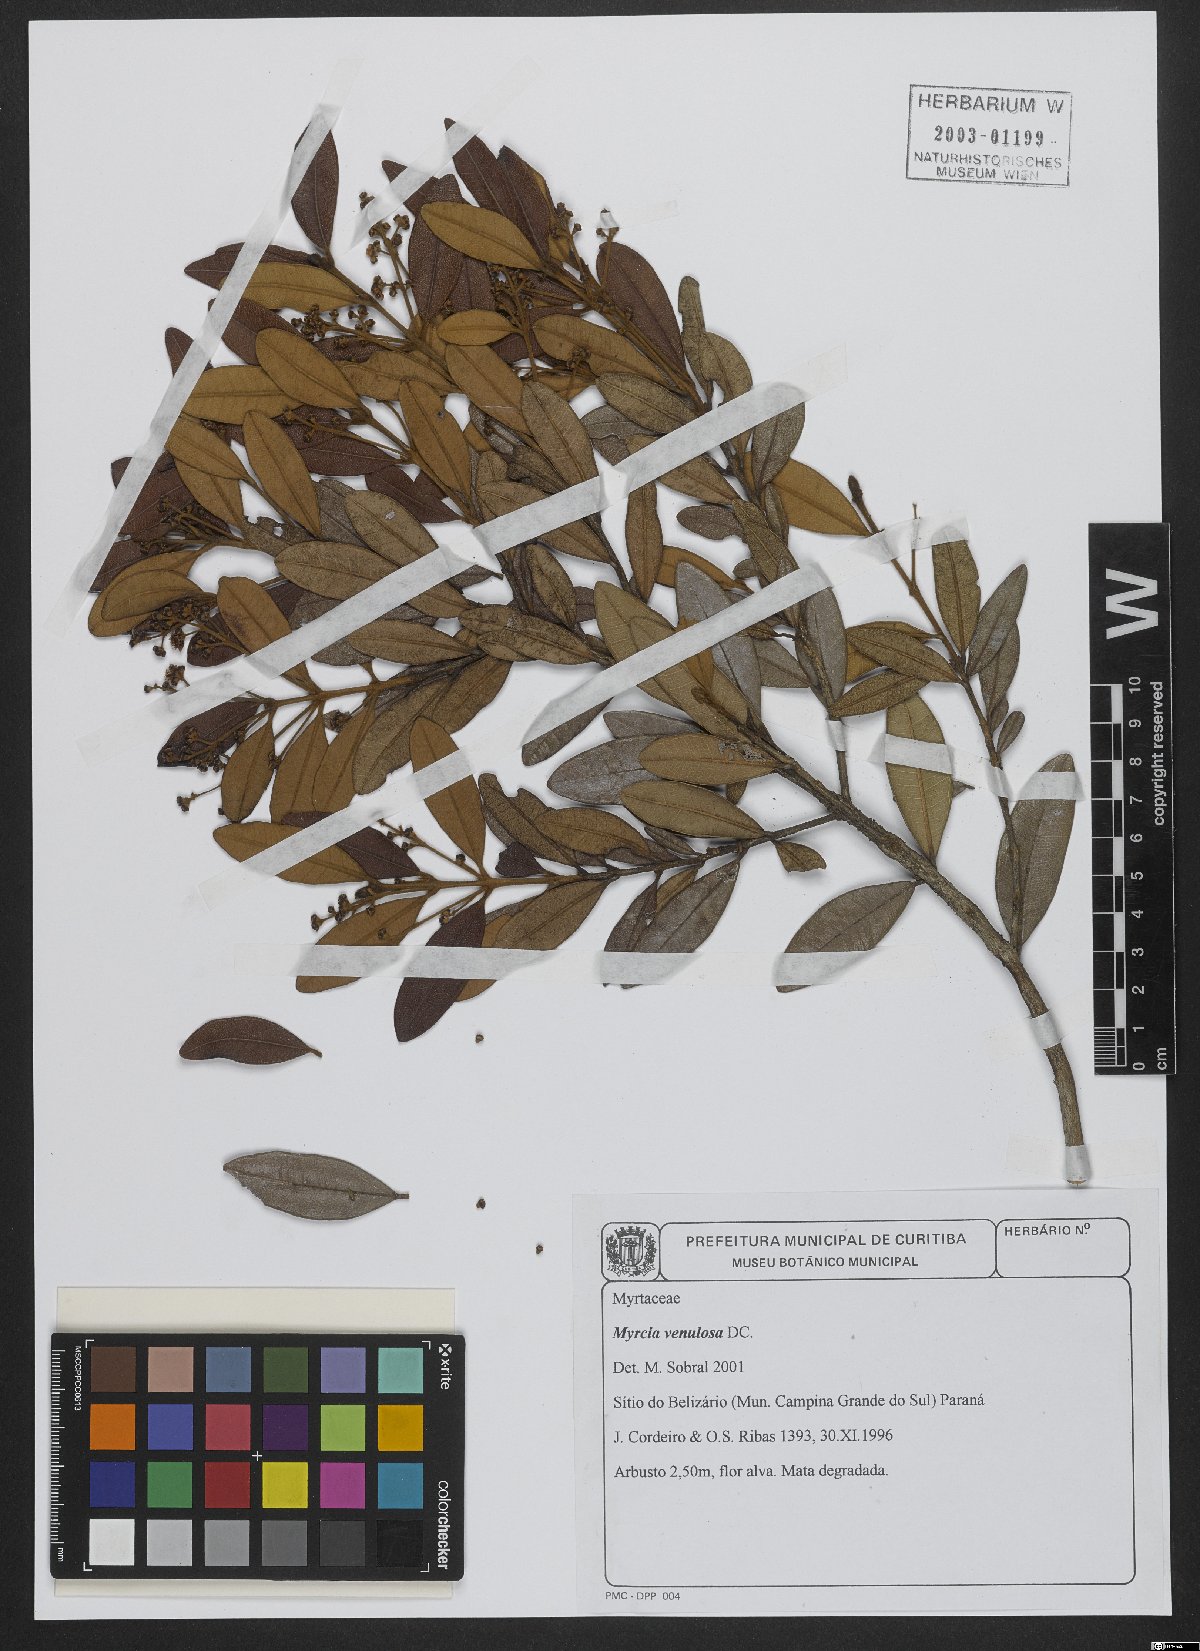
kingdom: Plantae
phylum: Tracheophyta
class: Magnoliopsida
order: Myrtales
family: Myrtaceae
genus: Myrcia
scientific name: Myrcia venulosa
